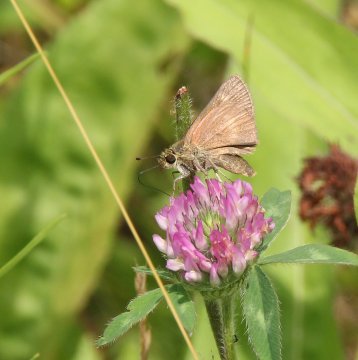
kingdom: Animalia
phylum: Arthropoda
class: Insecta
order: Lepidoptera
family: Hesperiidae
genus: Polites
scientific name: Polites egeremet
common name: Northern Broken-Dash
